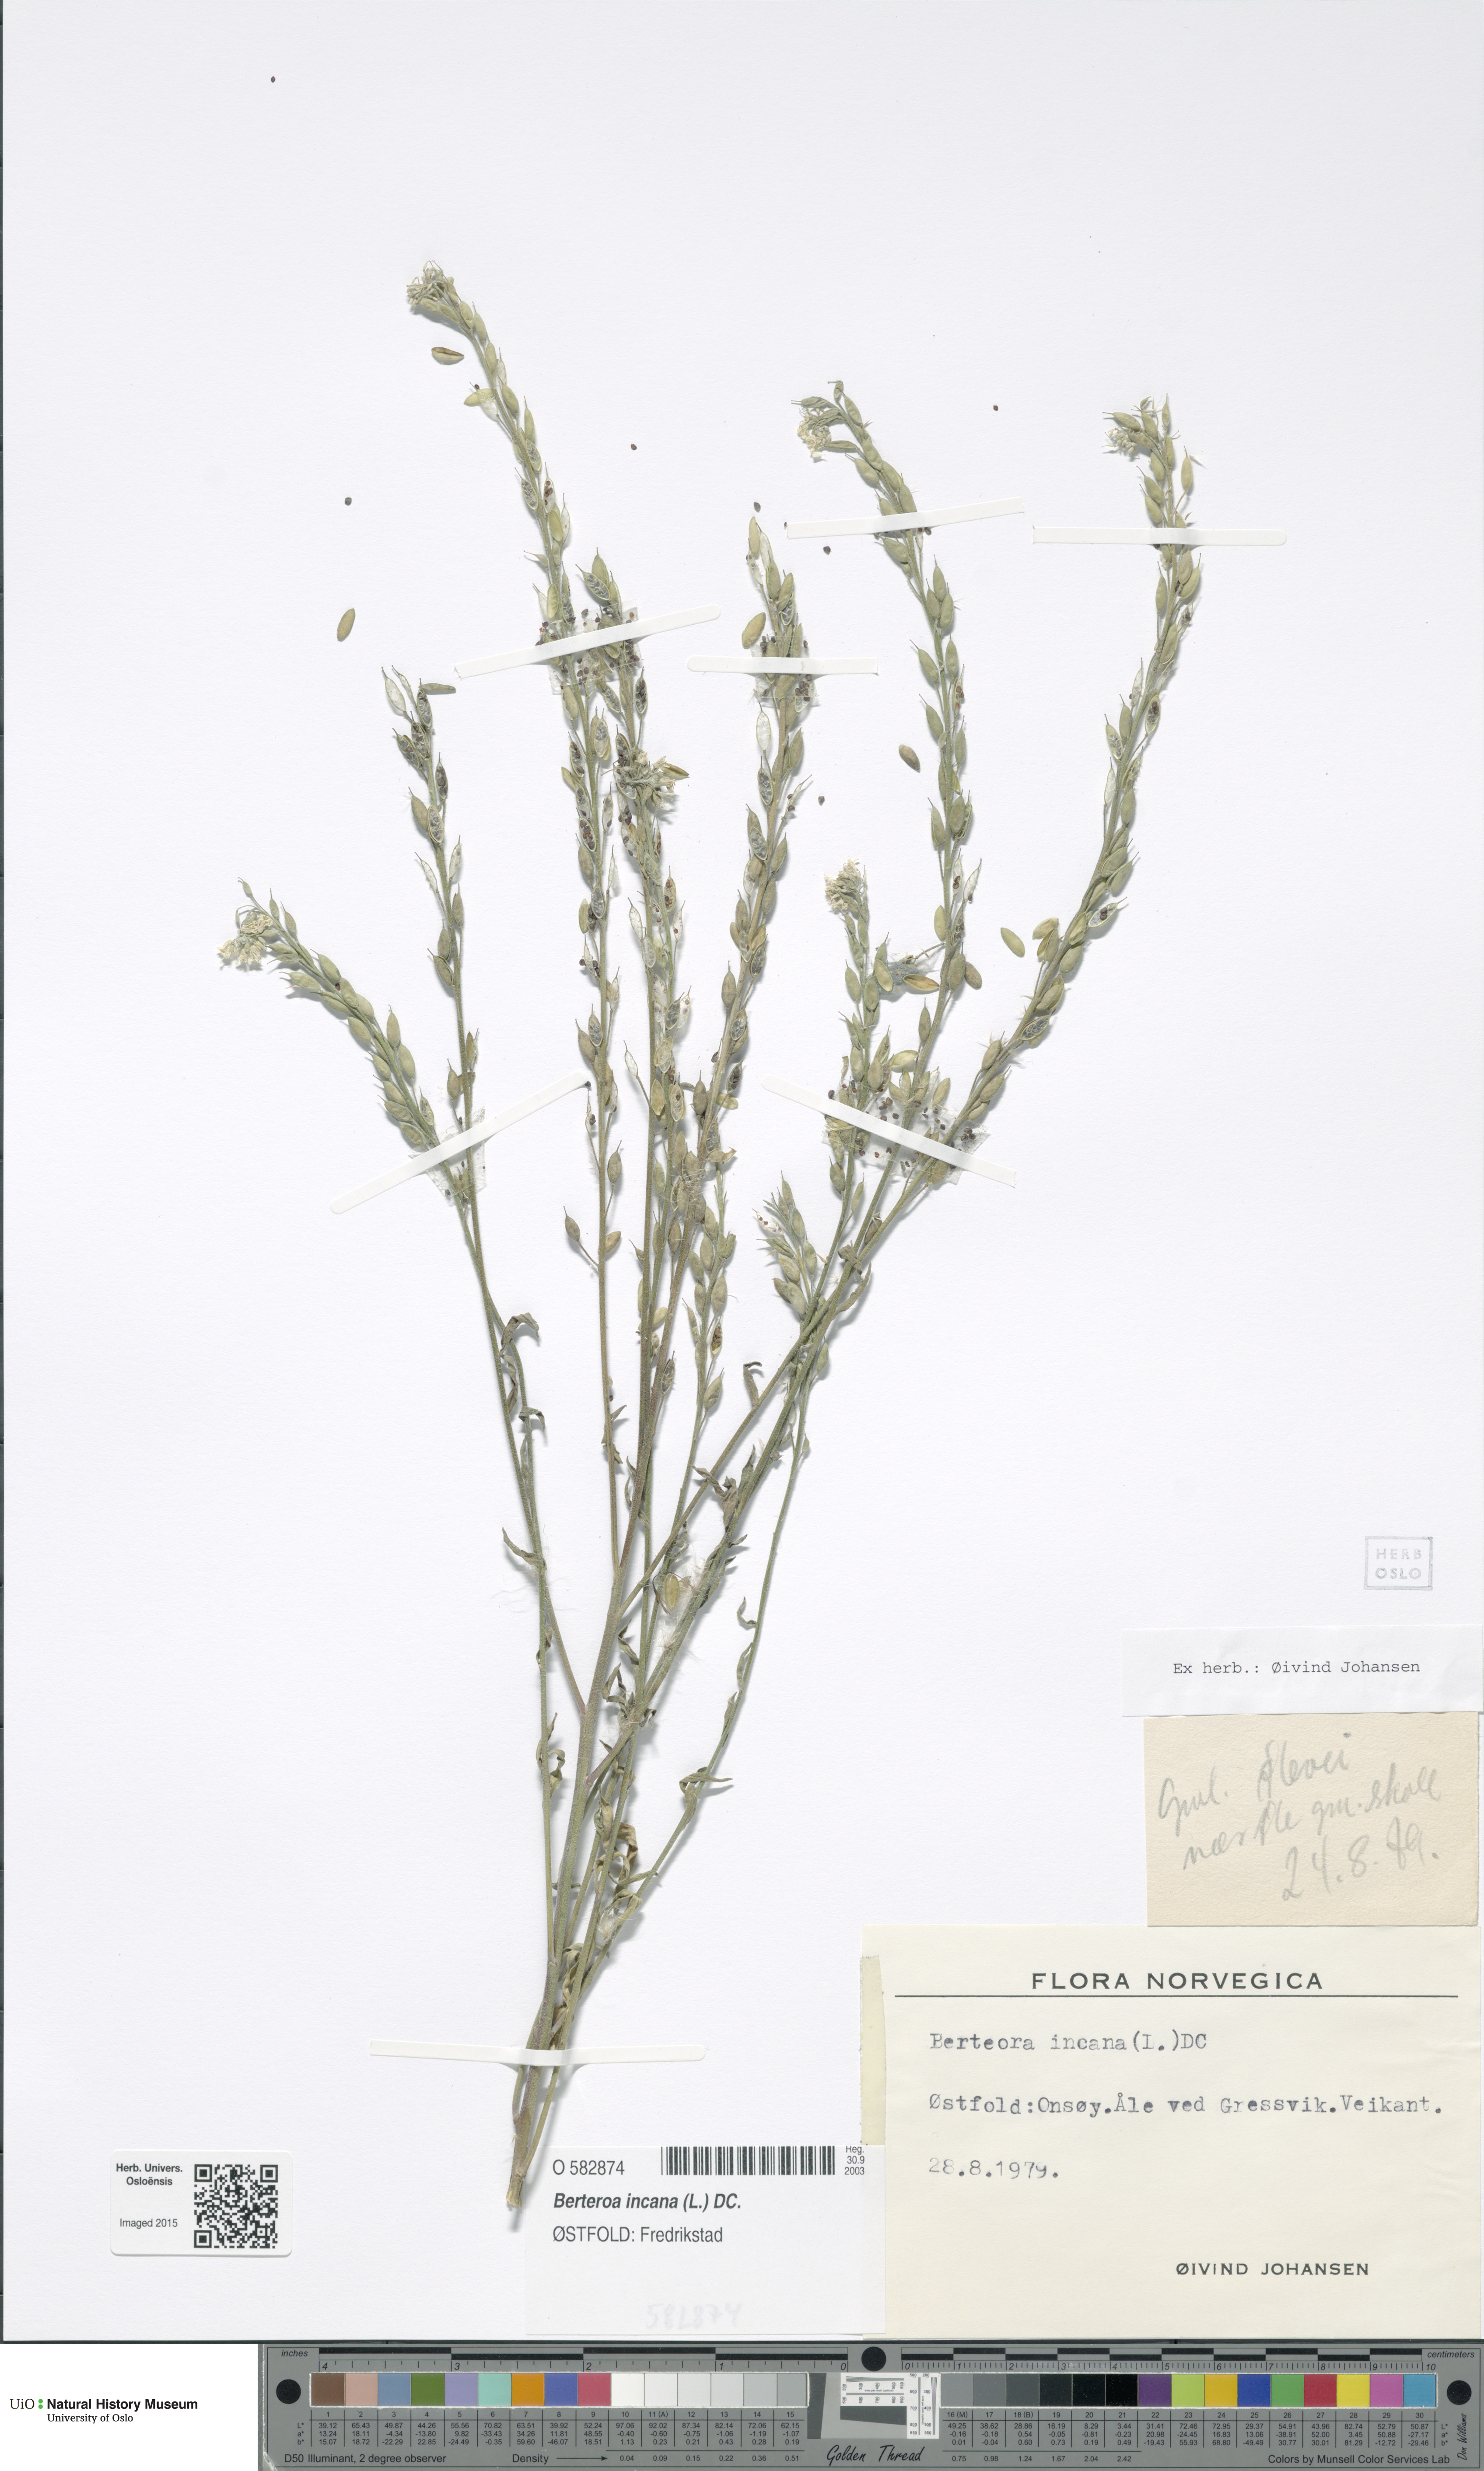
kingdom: Plantae
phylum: Tracheophyta
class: Magnoliopsida
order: Brassicales
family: Brassicaceae
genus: Berteroa
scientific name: Berteroa incana
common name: Hoary alison
